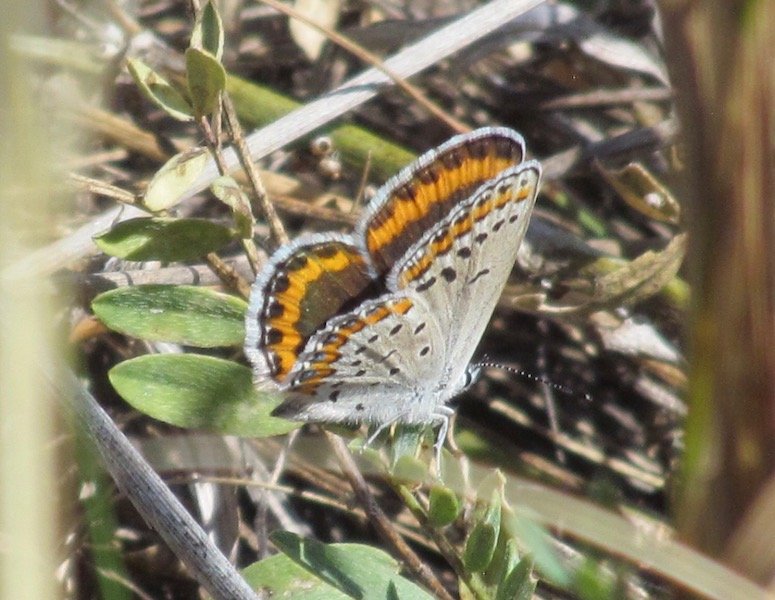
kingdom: Animalia
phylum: Arthropoda
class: Insecta
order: Lepidoptera
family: Lycaenidae
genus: Lycaeides
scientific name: Lycaeides melissa
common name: Melissa Blue
